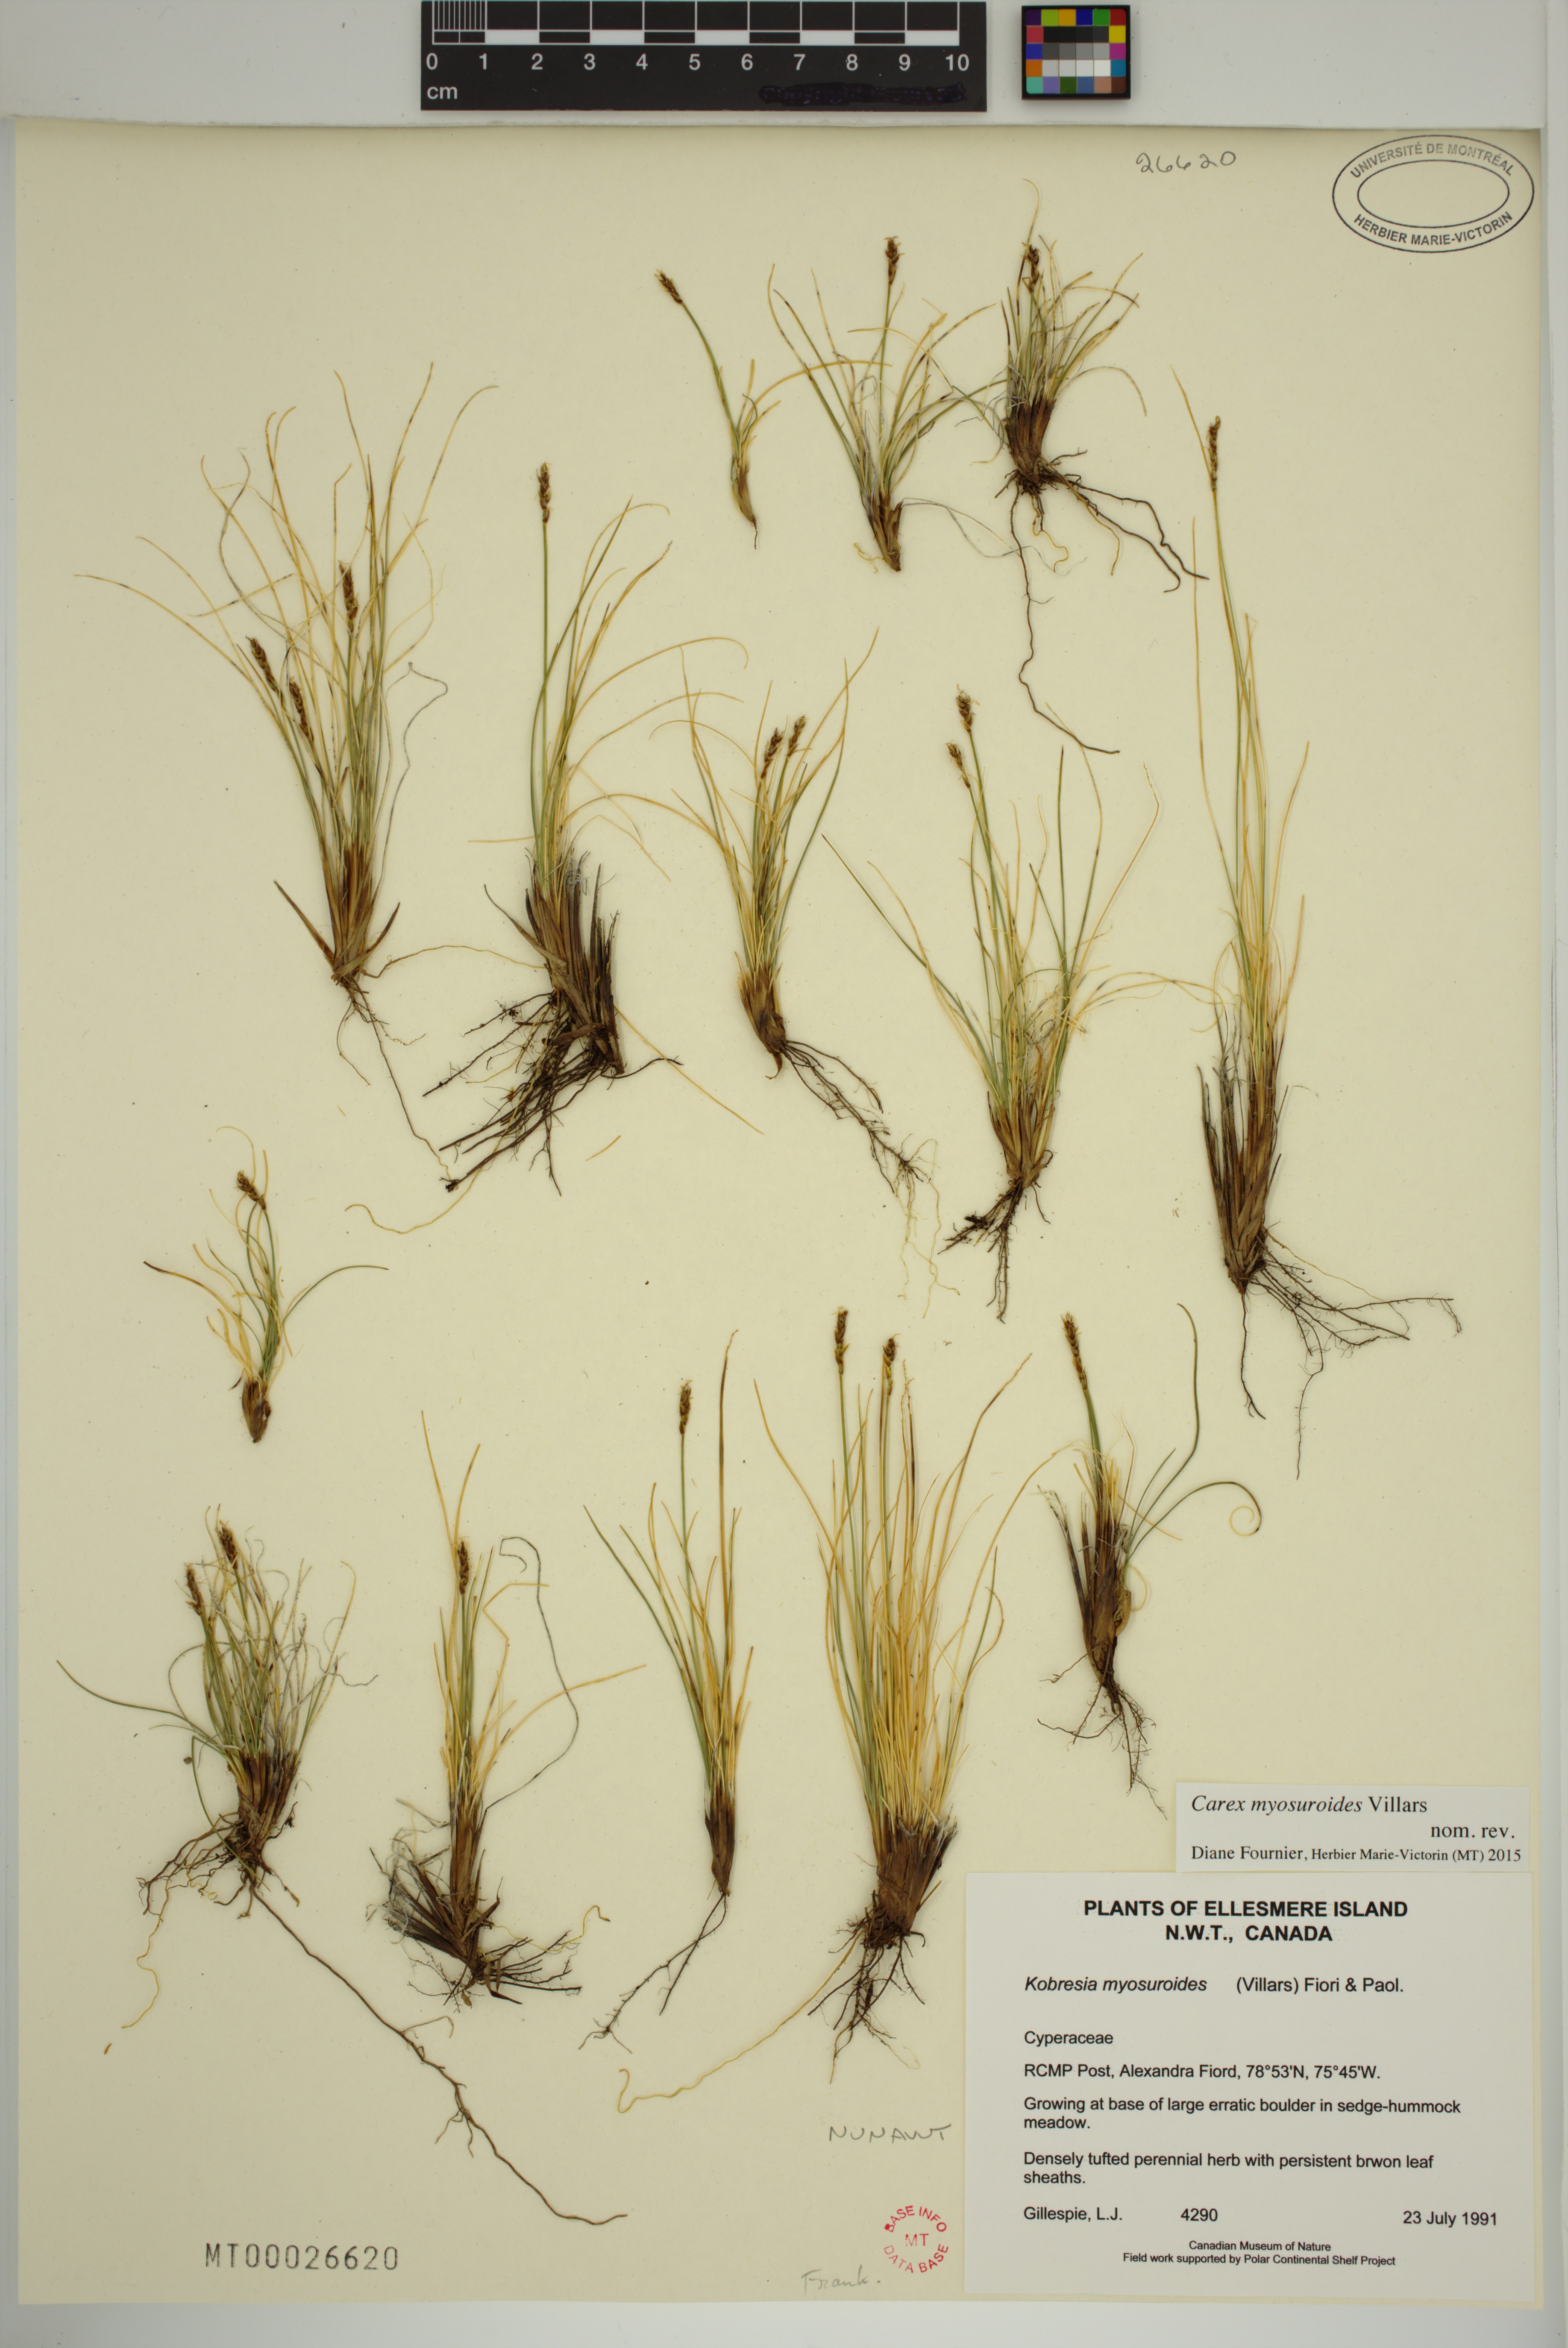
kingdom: Plantae
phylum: Tracheophyta
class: Liliopsida
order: Poales
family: Cyperaceae
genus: Carex
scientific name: Carex myosuroides
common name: Bellard's bog sedge
